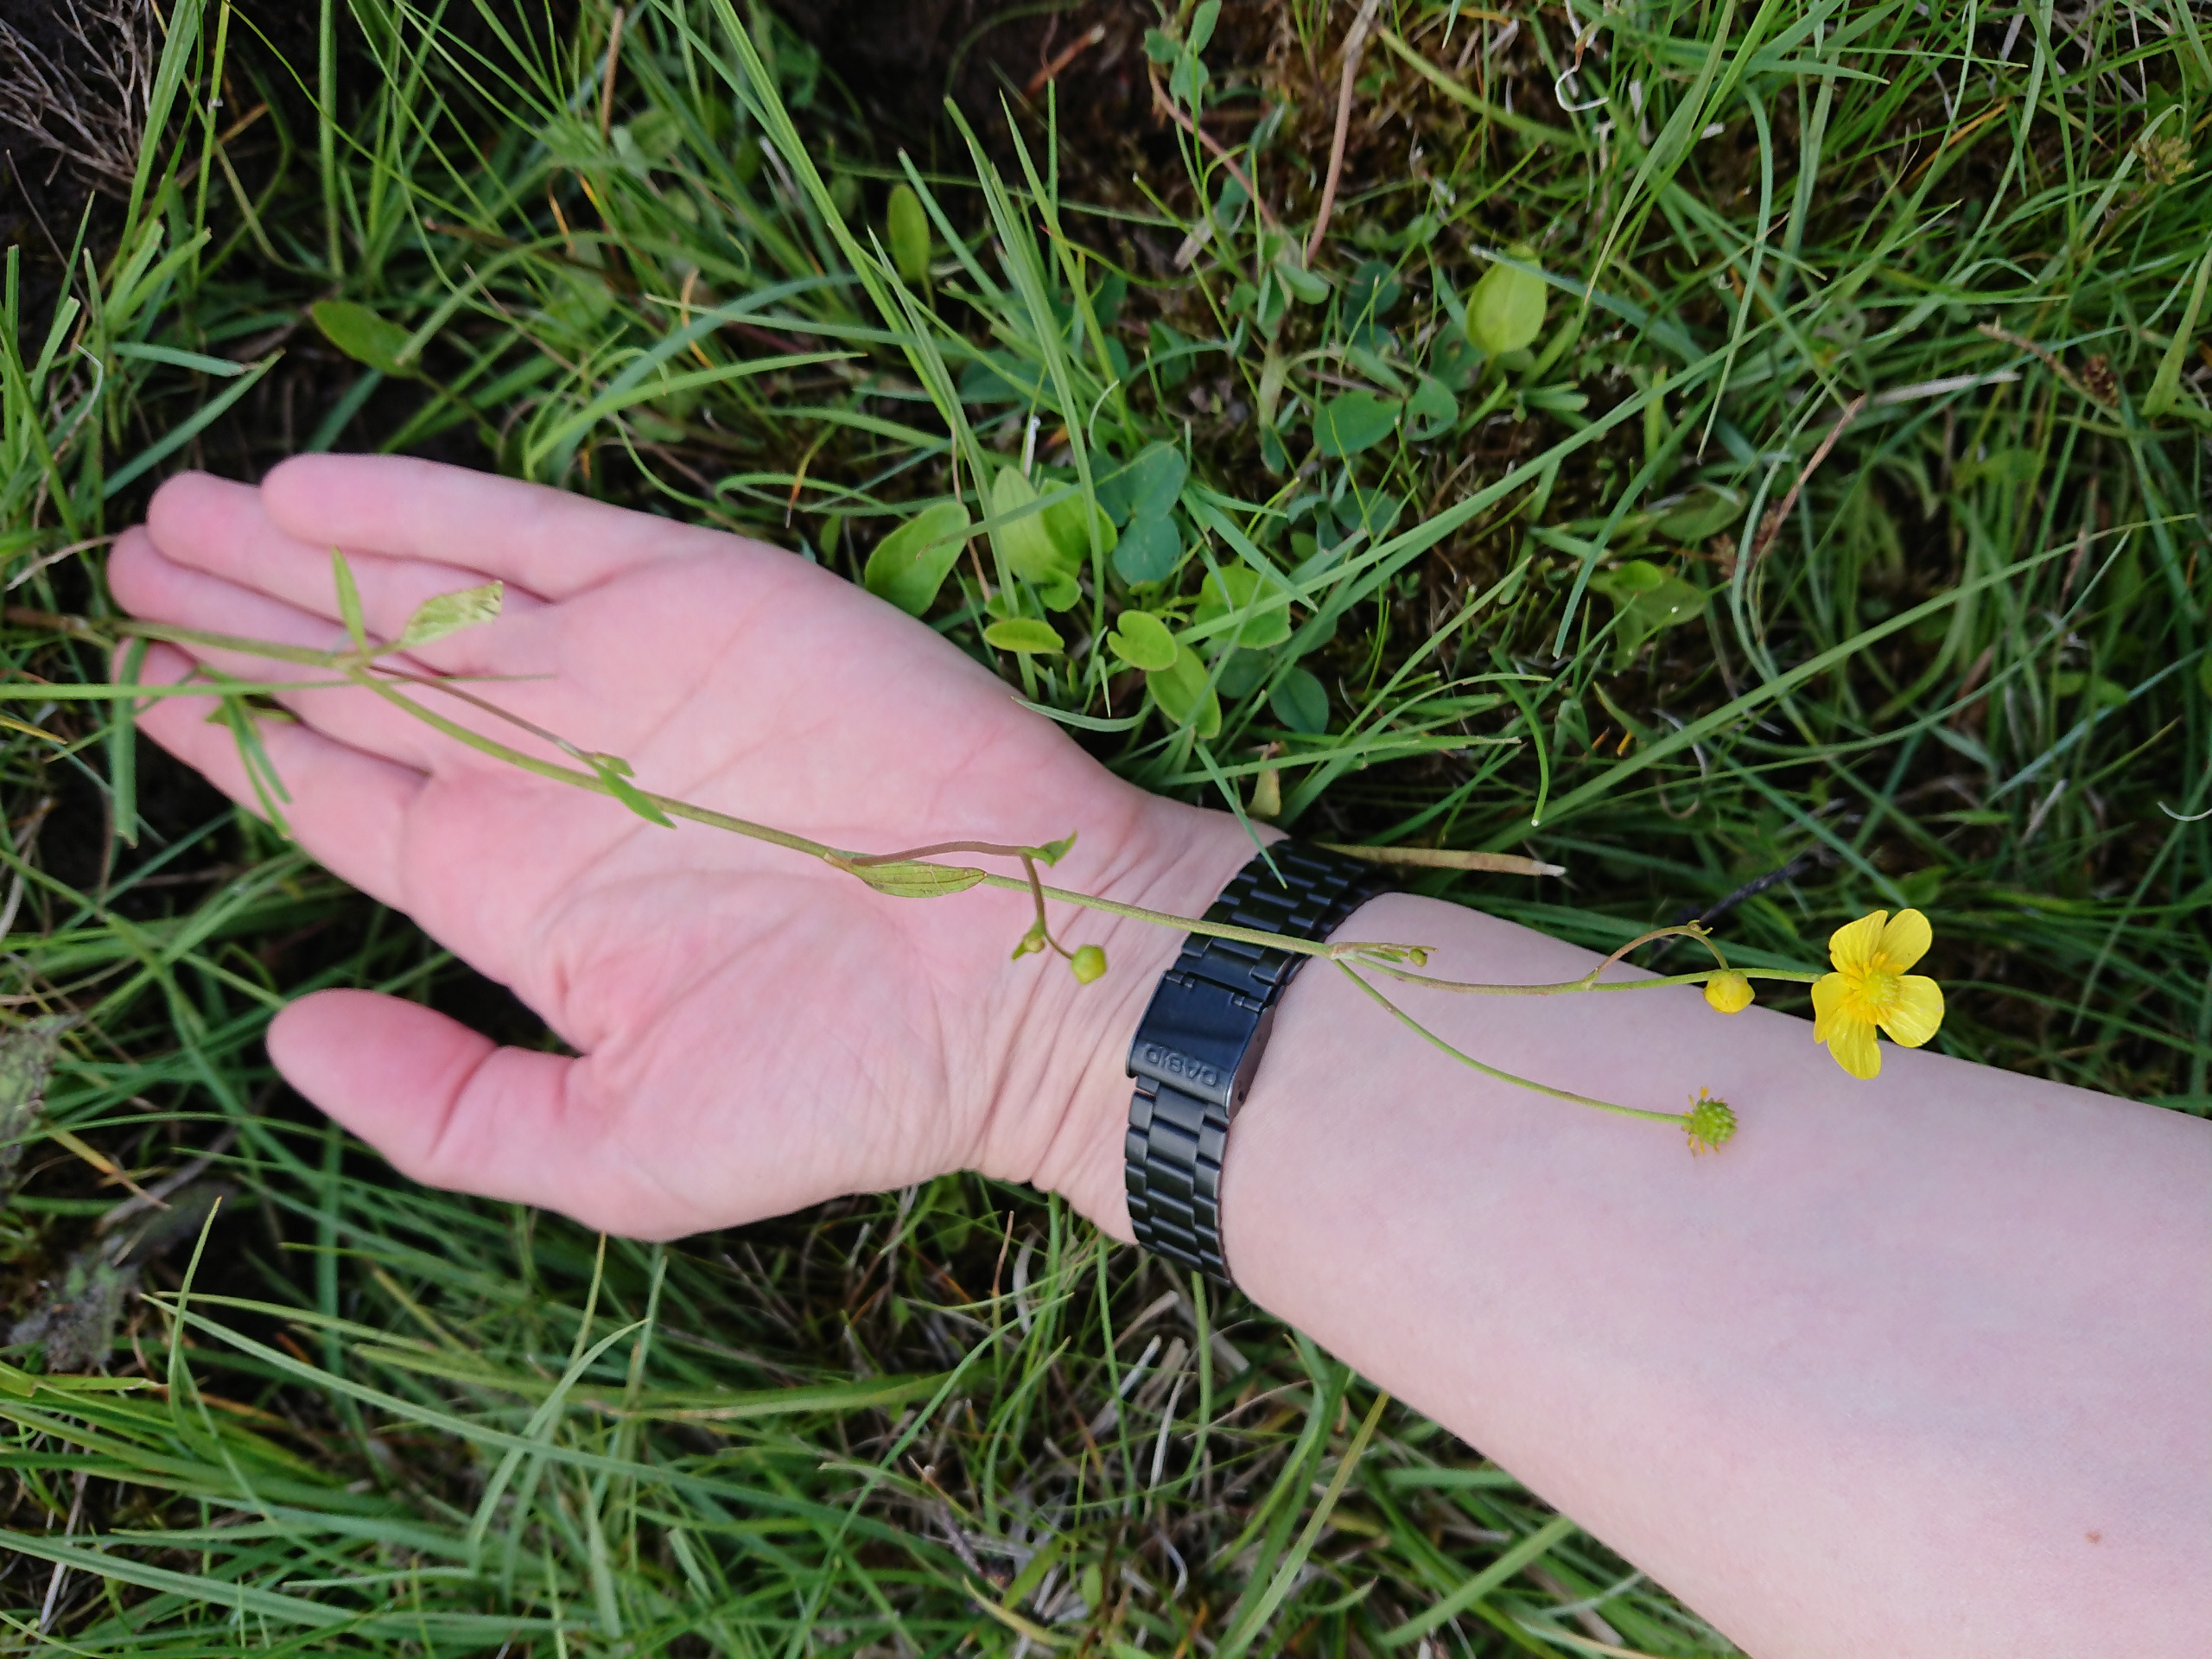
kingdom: Plantae
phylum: Tracheophyta
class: Magnoliopsida
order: Ranunculales
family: Ranunculaceae
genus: Ranunculus
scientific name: Ranunculus flammula
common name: Kær-ranunkel
